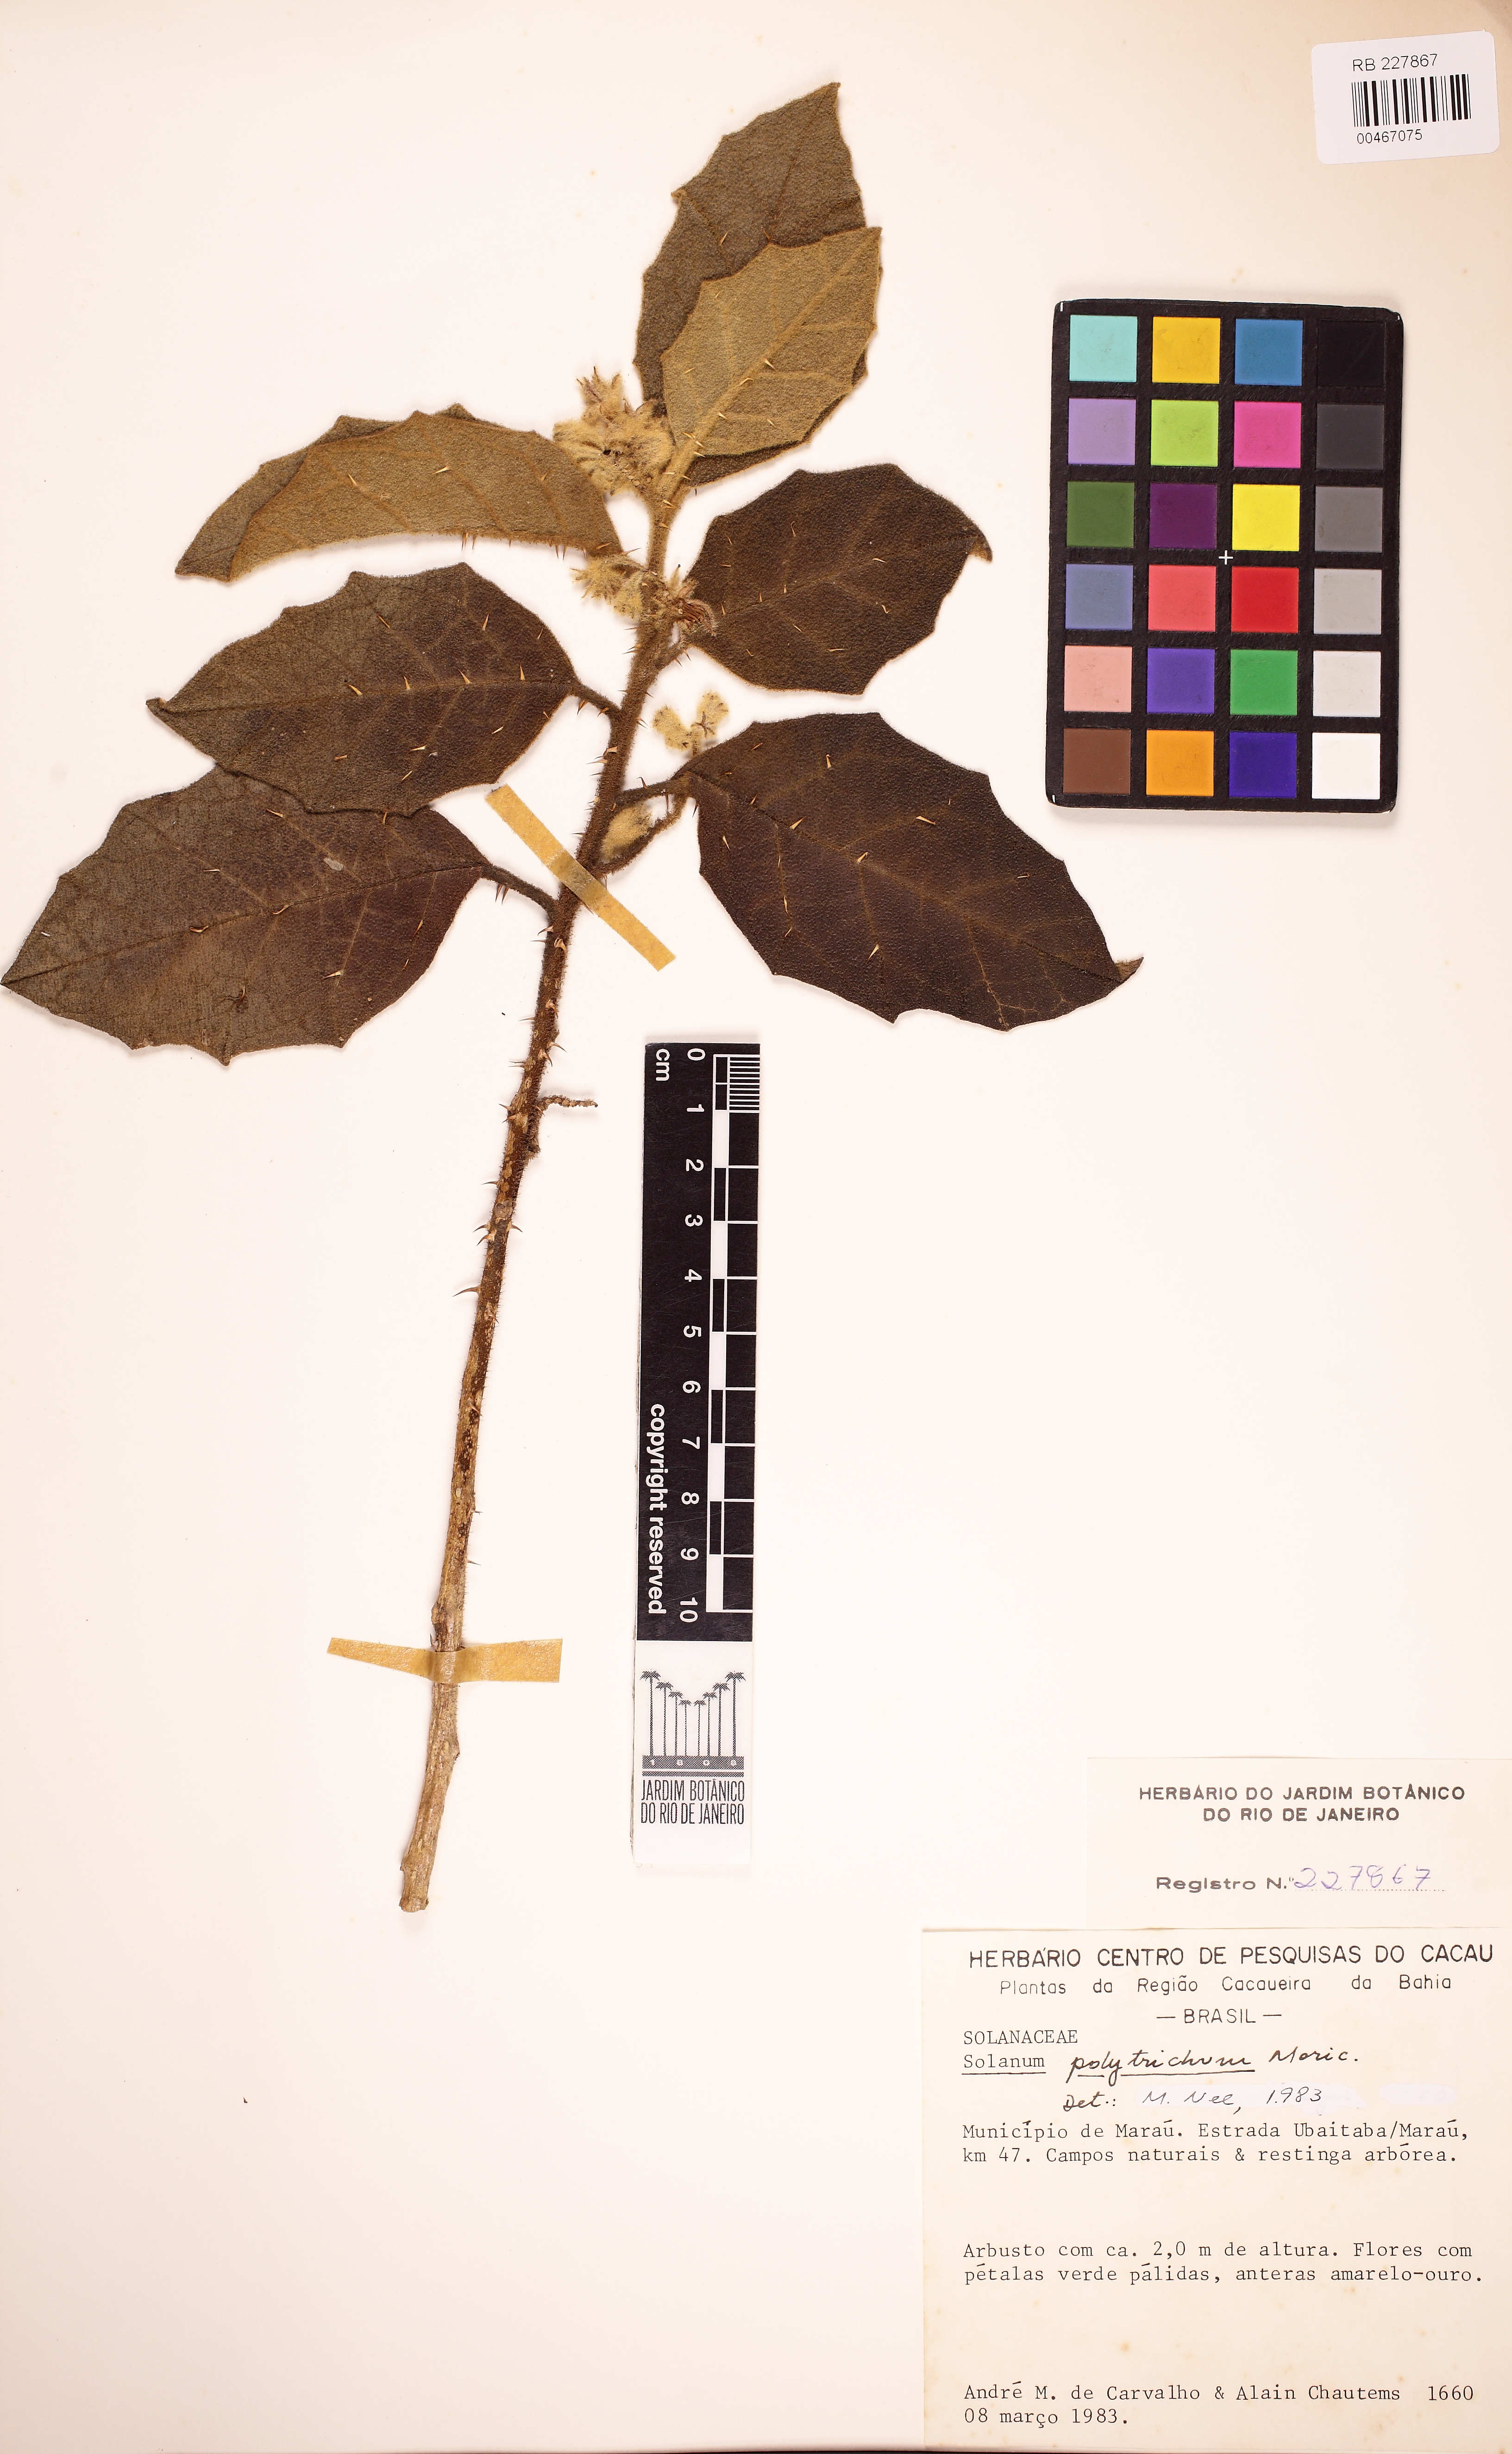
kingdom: Plantae
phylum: Tracheophyta
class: Magnoliopsida
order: Solanales
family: Solanaceae
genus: Solanum
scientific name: Solanum polytrichum
